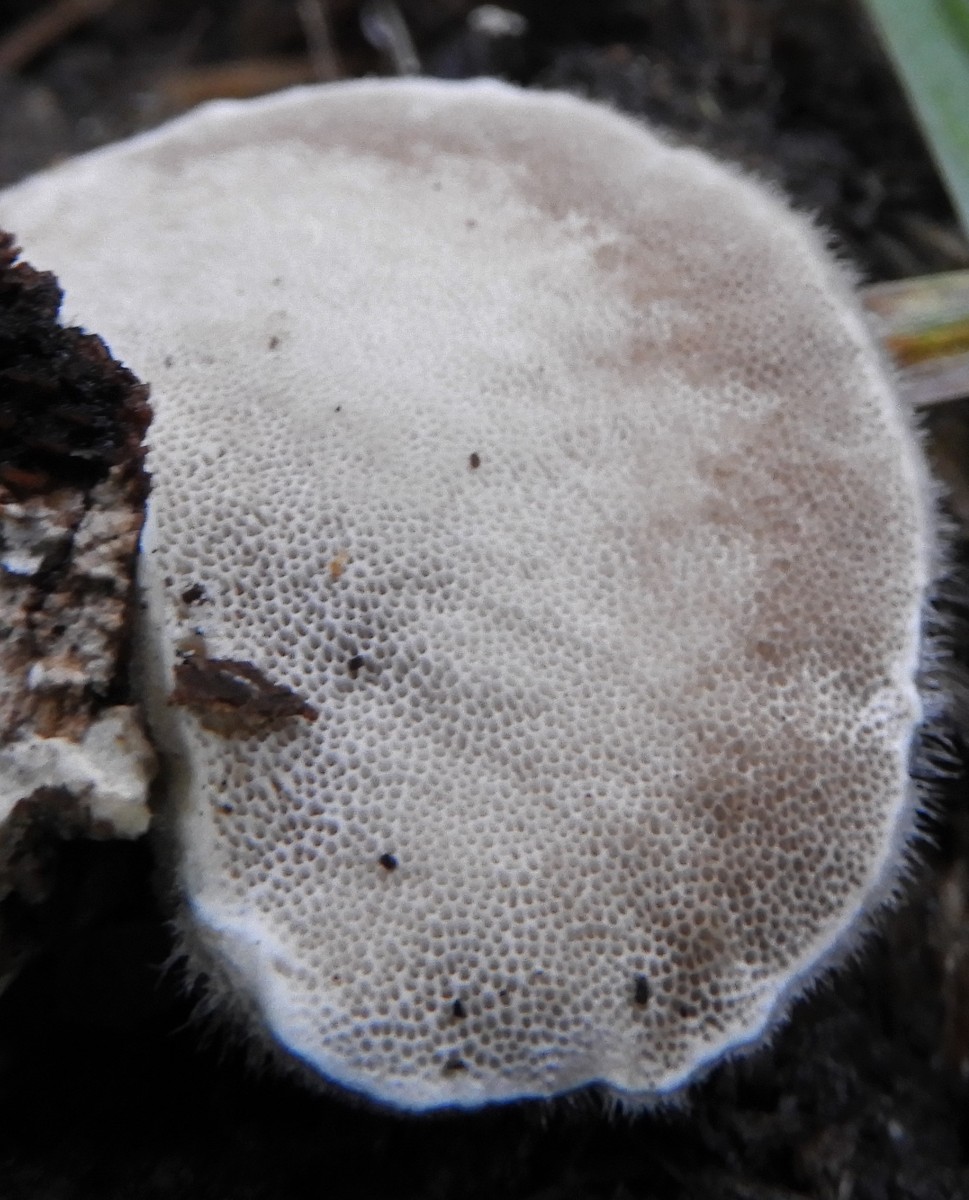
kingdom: Fungi
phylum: Basidiomycota
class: Agaricomycetes
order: Polyporales
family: Polyporaceae
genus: Trametes
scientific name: Trametes hirsuta
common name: håret læderporesvamp
